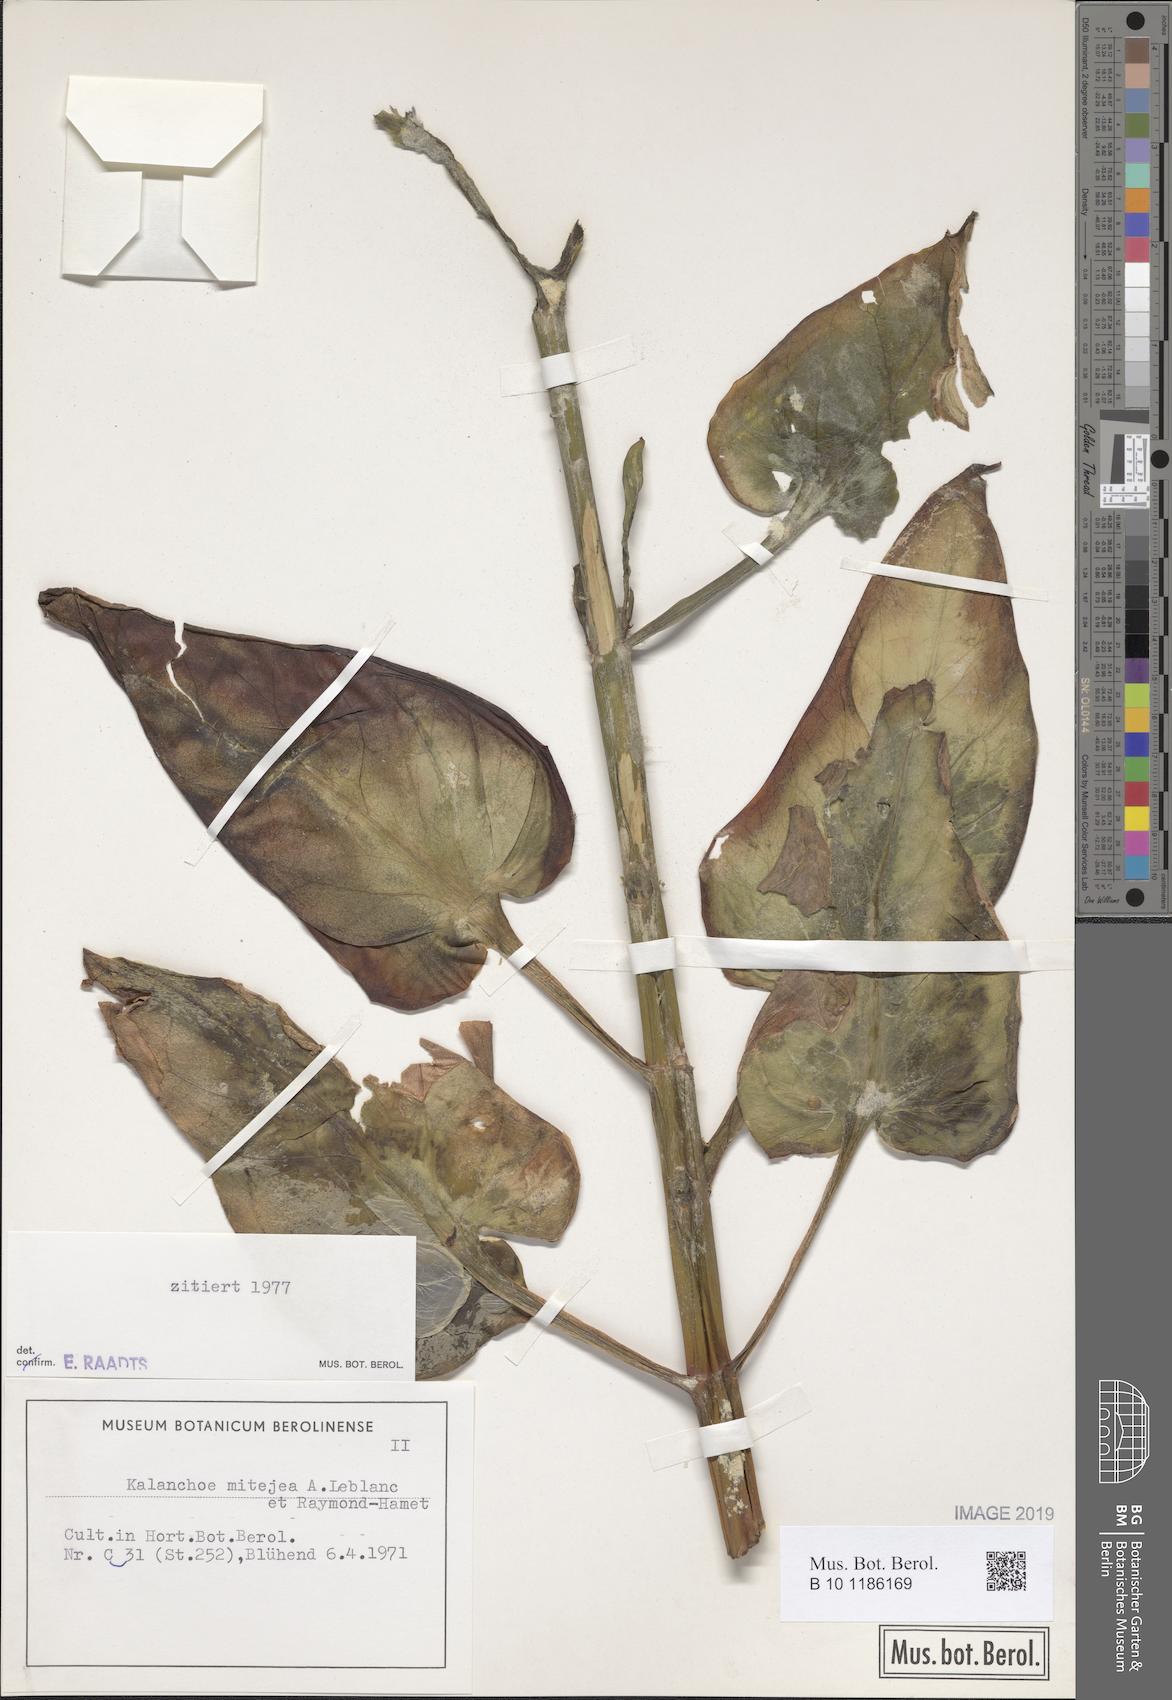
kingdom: Plantae
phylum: Tracheophyta
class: Magnoliopsida
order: Saxifragales
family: Crassulaceae
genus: Kalanchoe
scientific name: Kalanchoe mitejea
